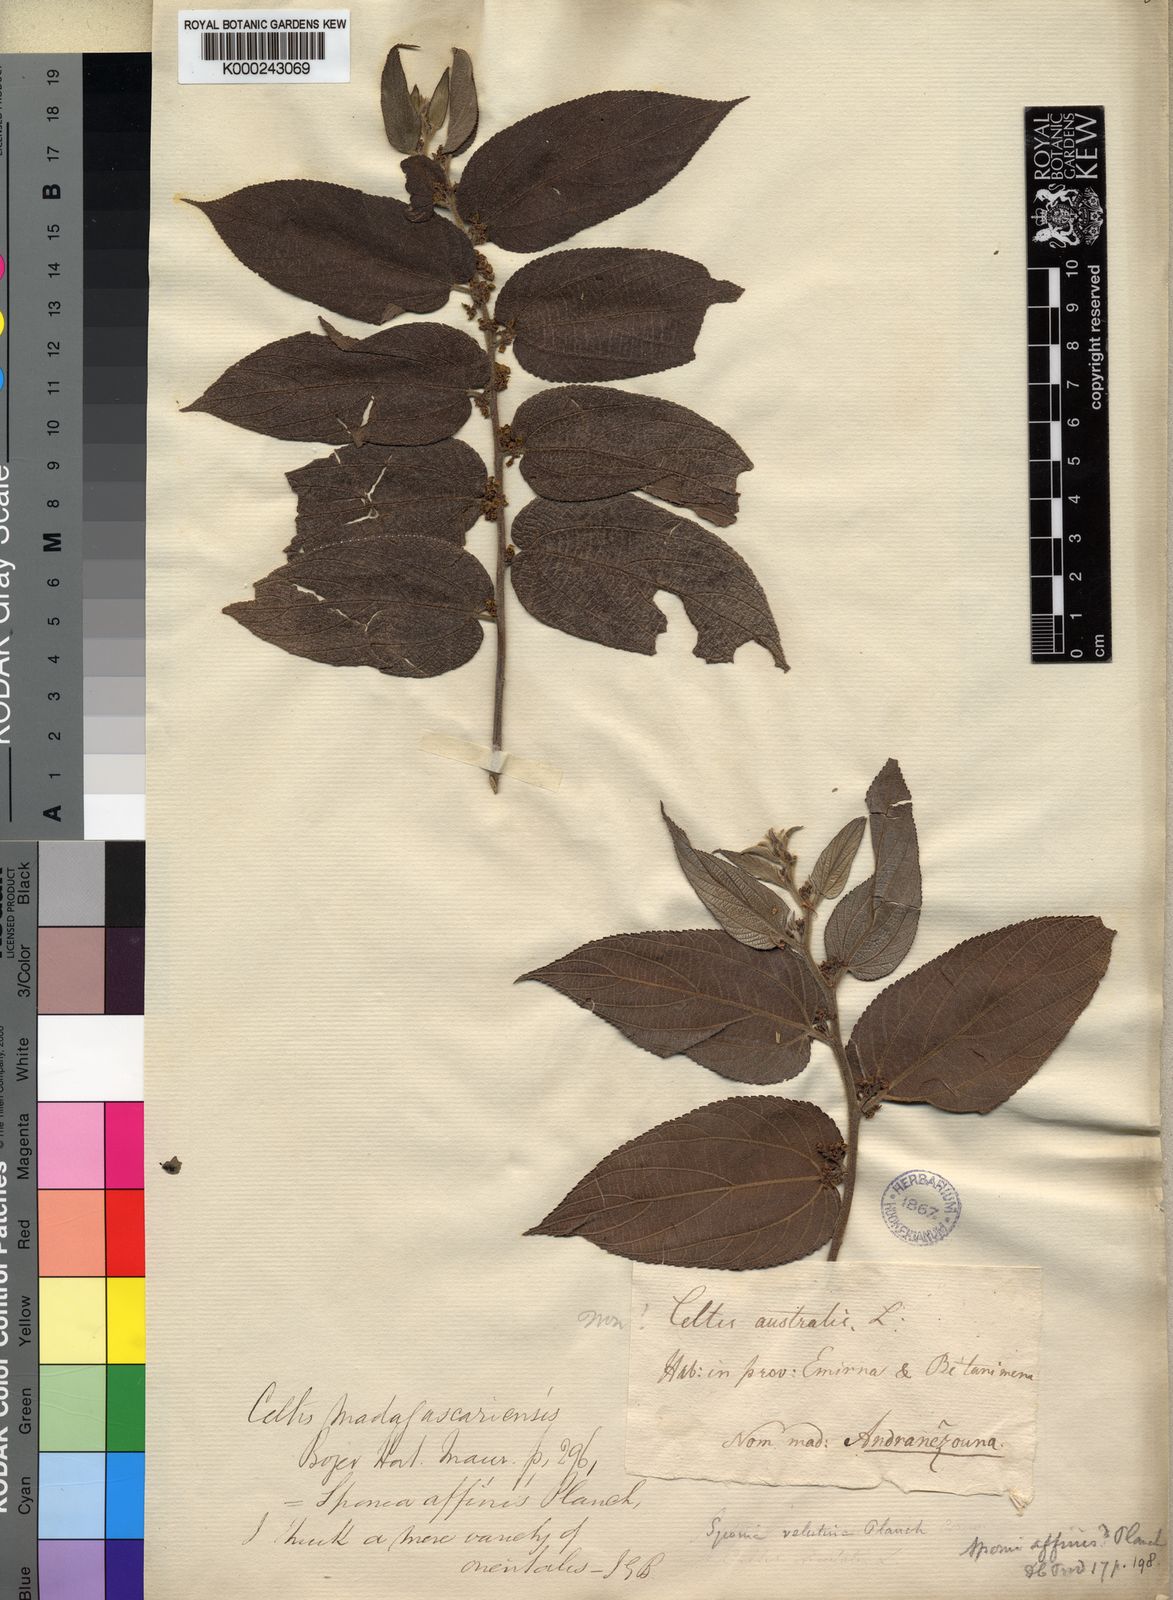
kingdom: Plantae
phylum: Tracheophyta
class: Magnoliopsida
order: Rosales
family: Cannabaceae
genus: Trema
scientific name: Trema
